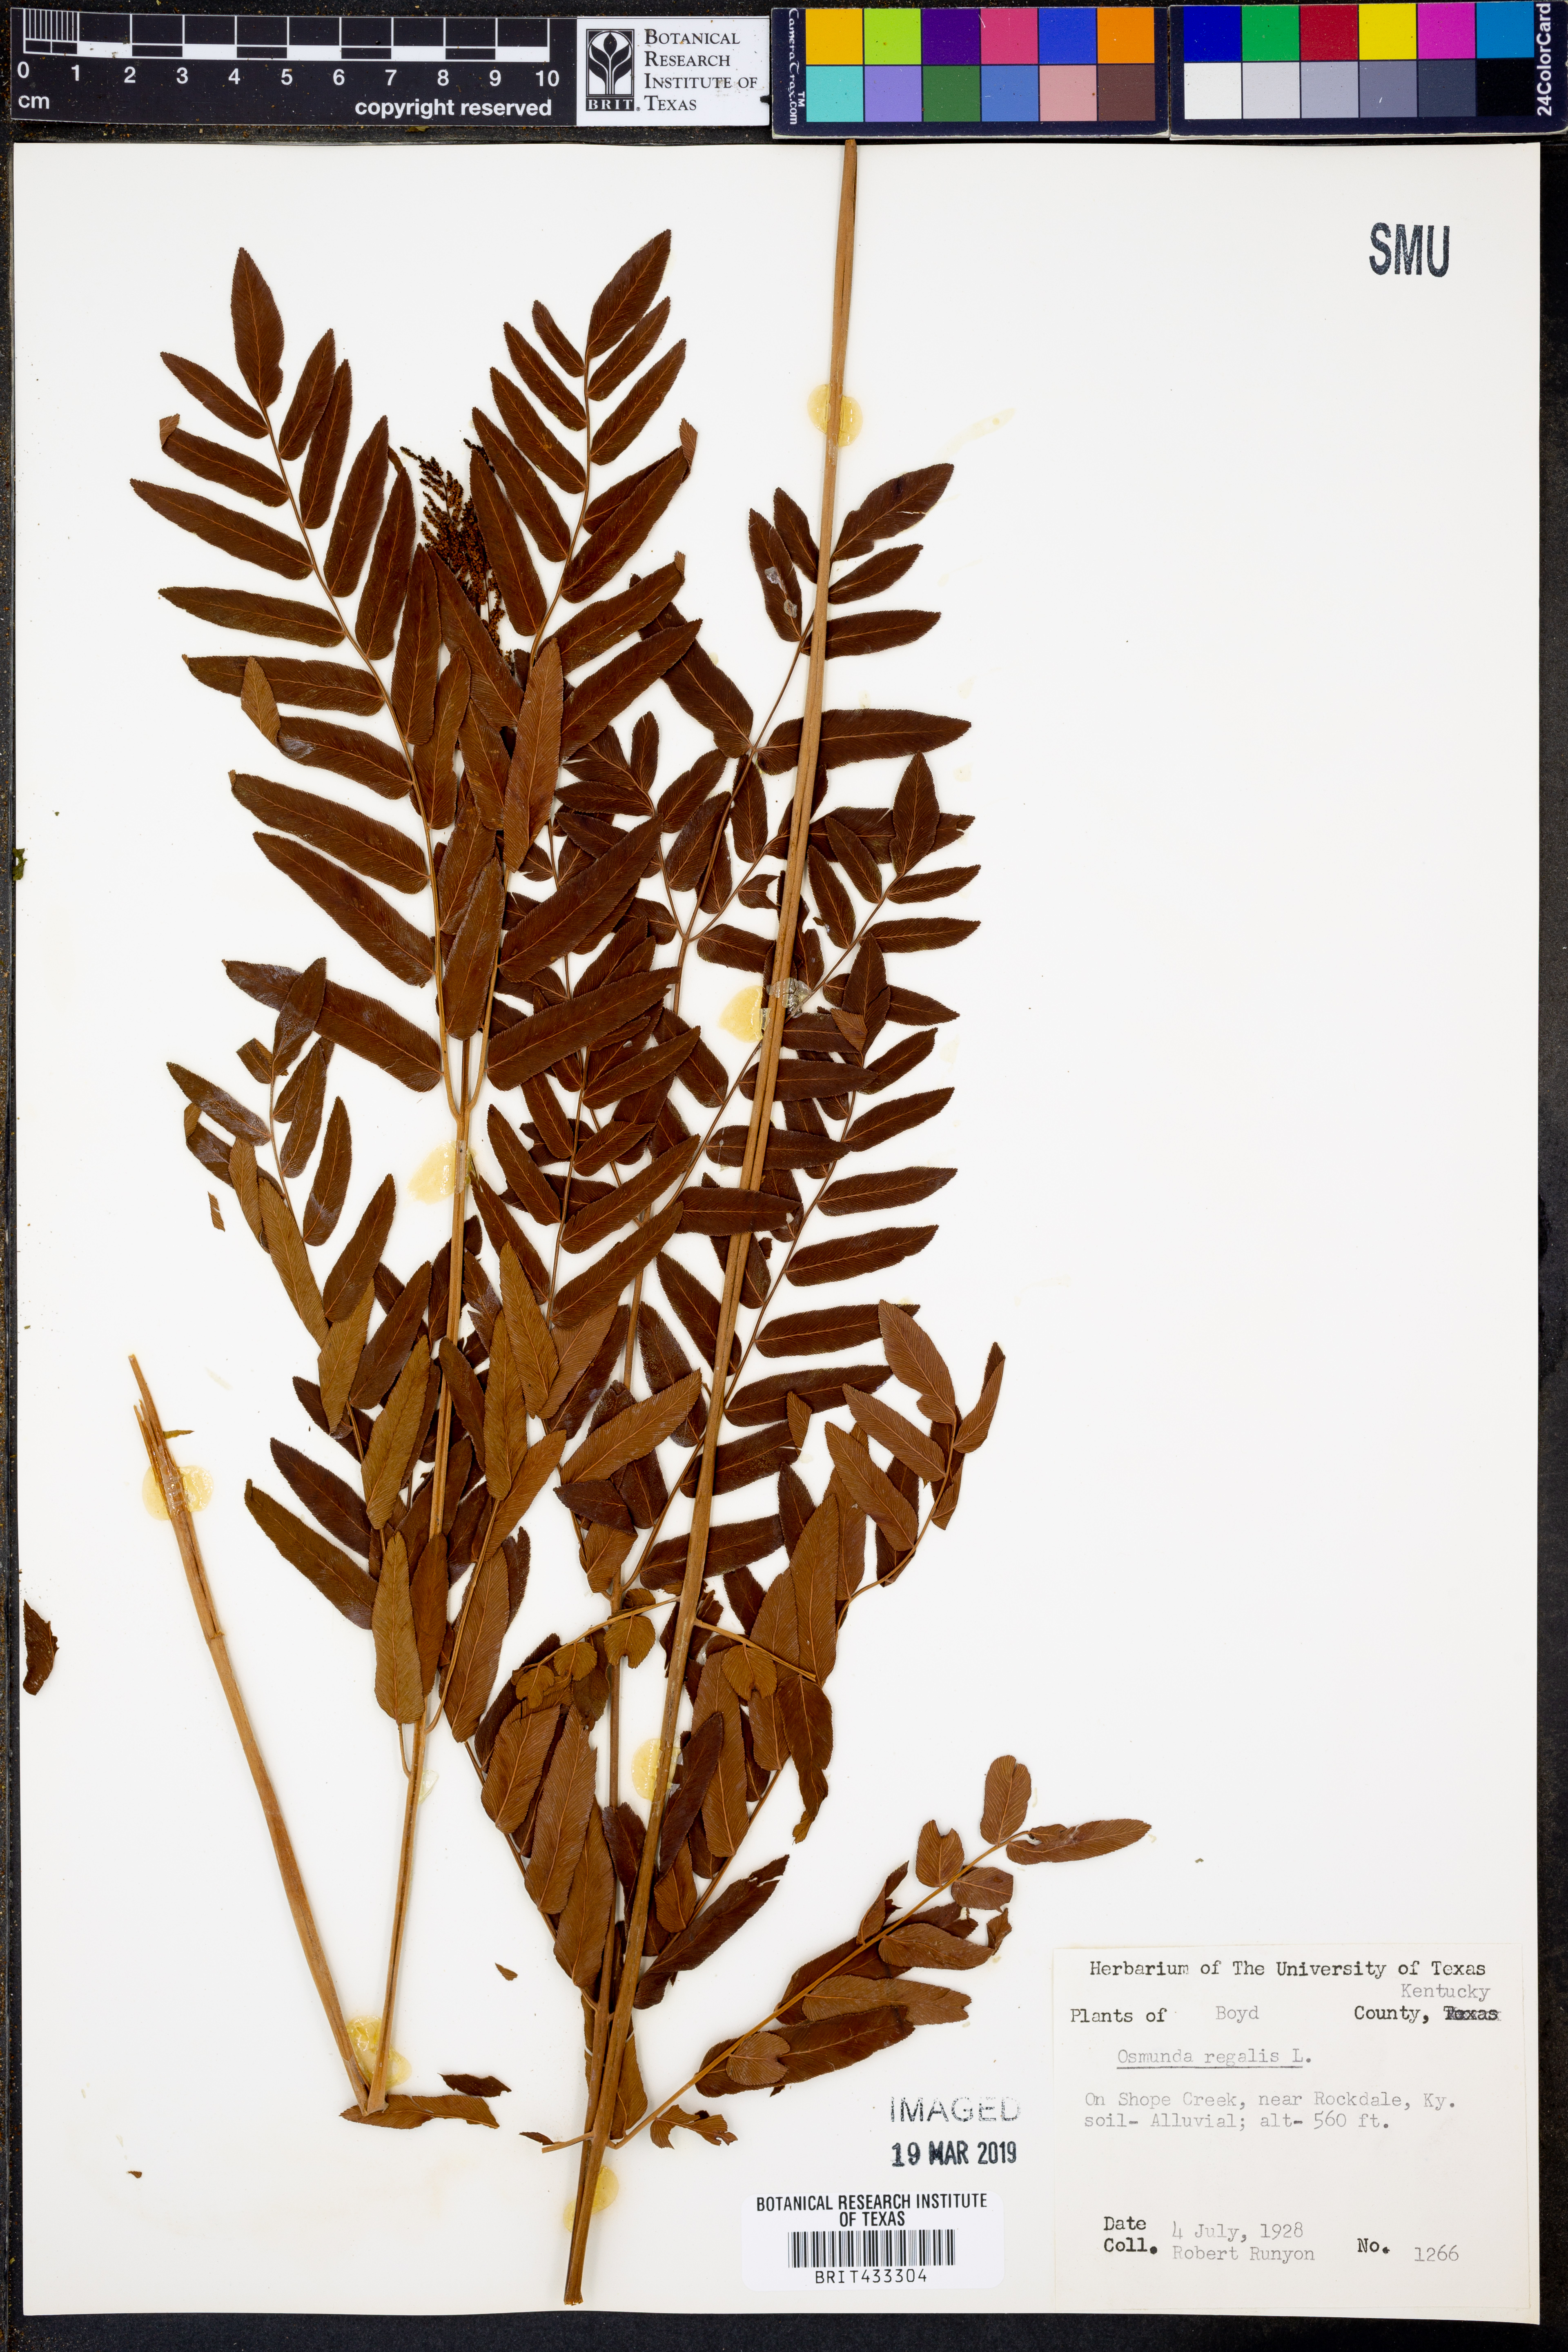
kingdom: Plantae
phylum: Tracheophyta
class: Polypodiopsida
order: Osmundales
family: Osmundaceae
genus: Osmunda
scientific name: Osmunda regalis
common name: Royal fern
